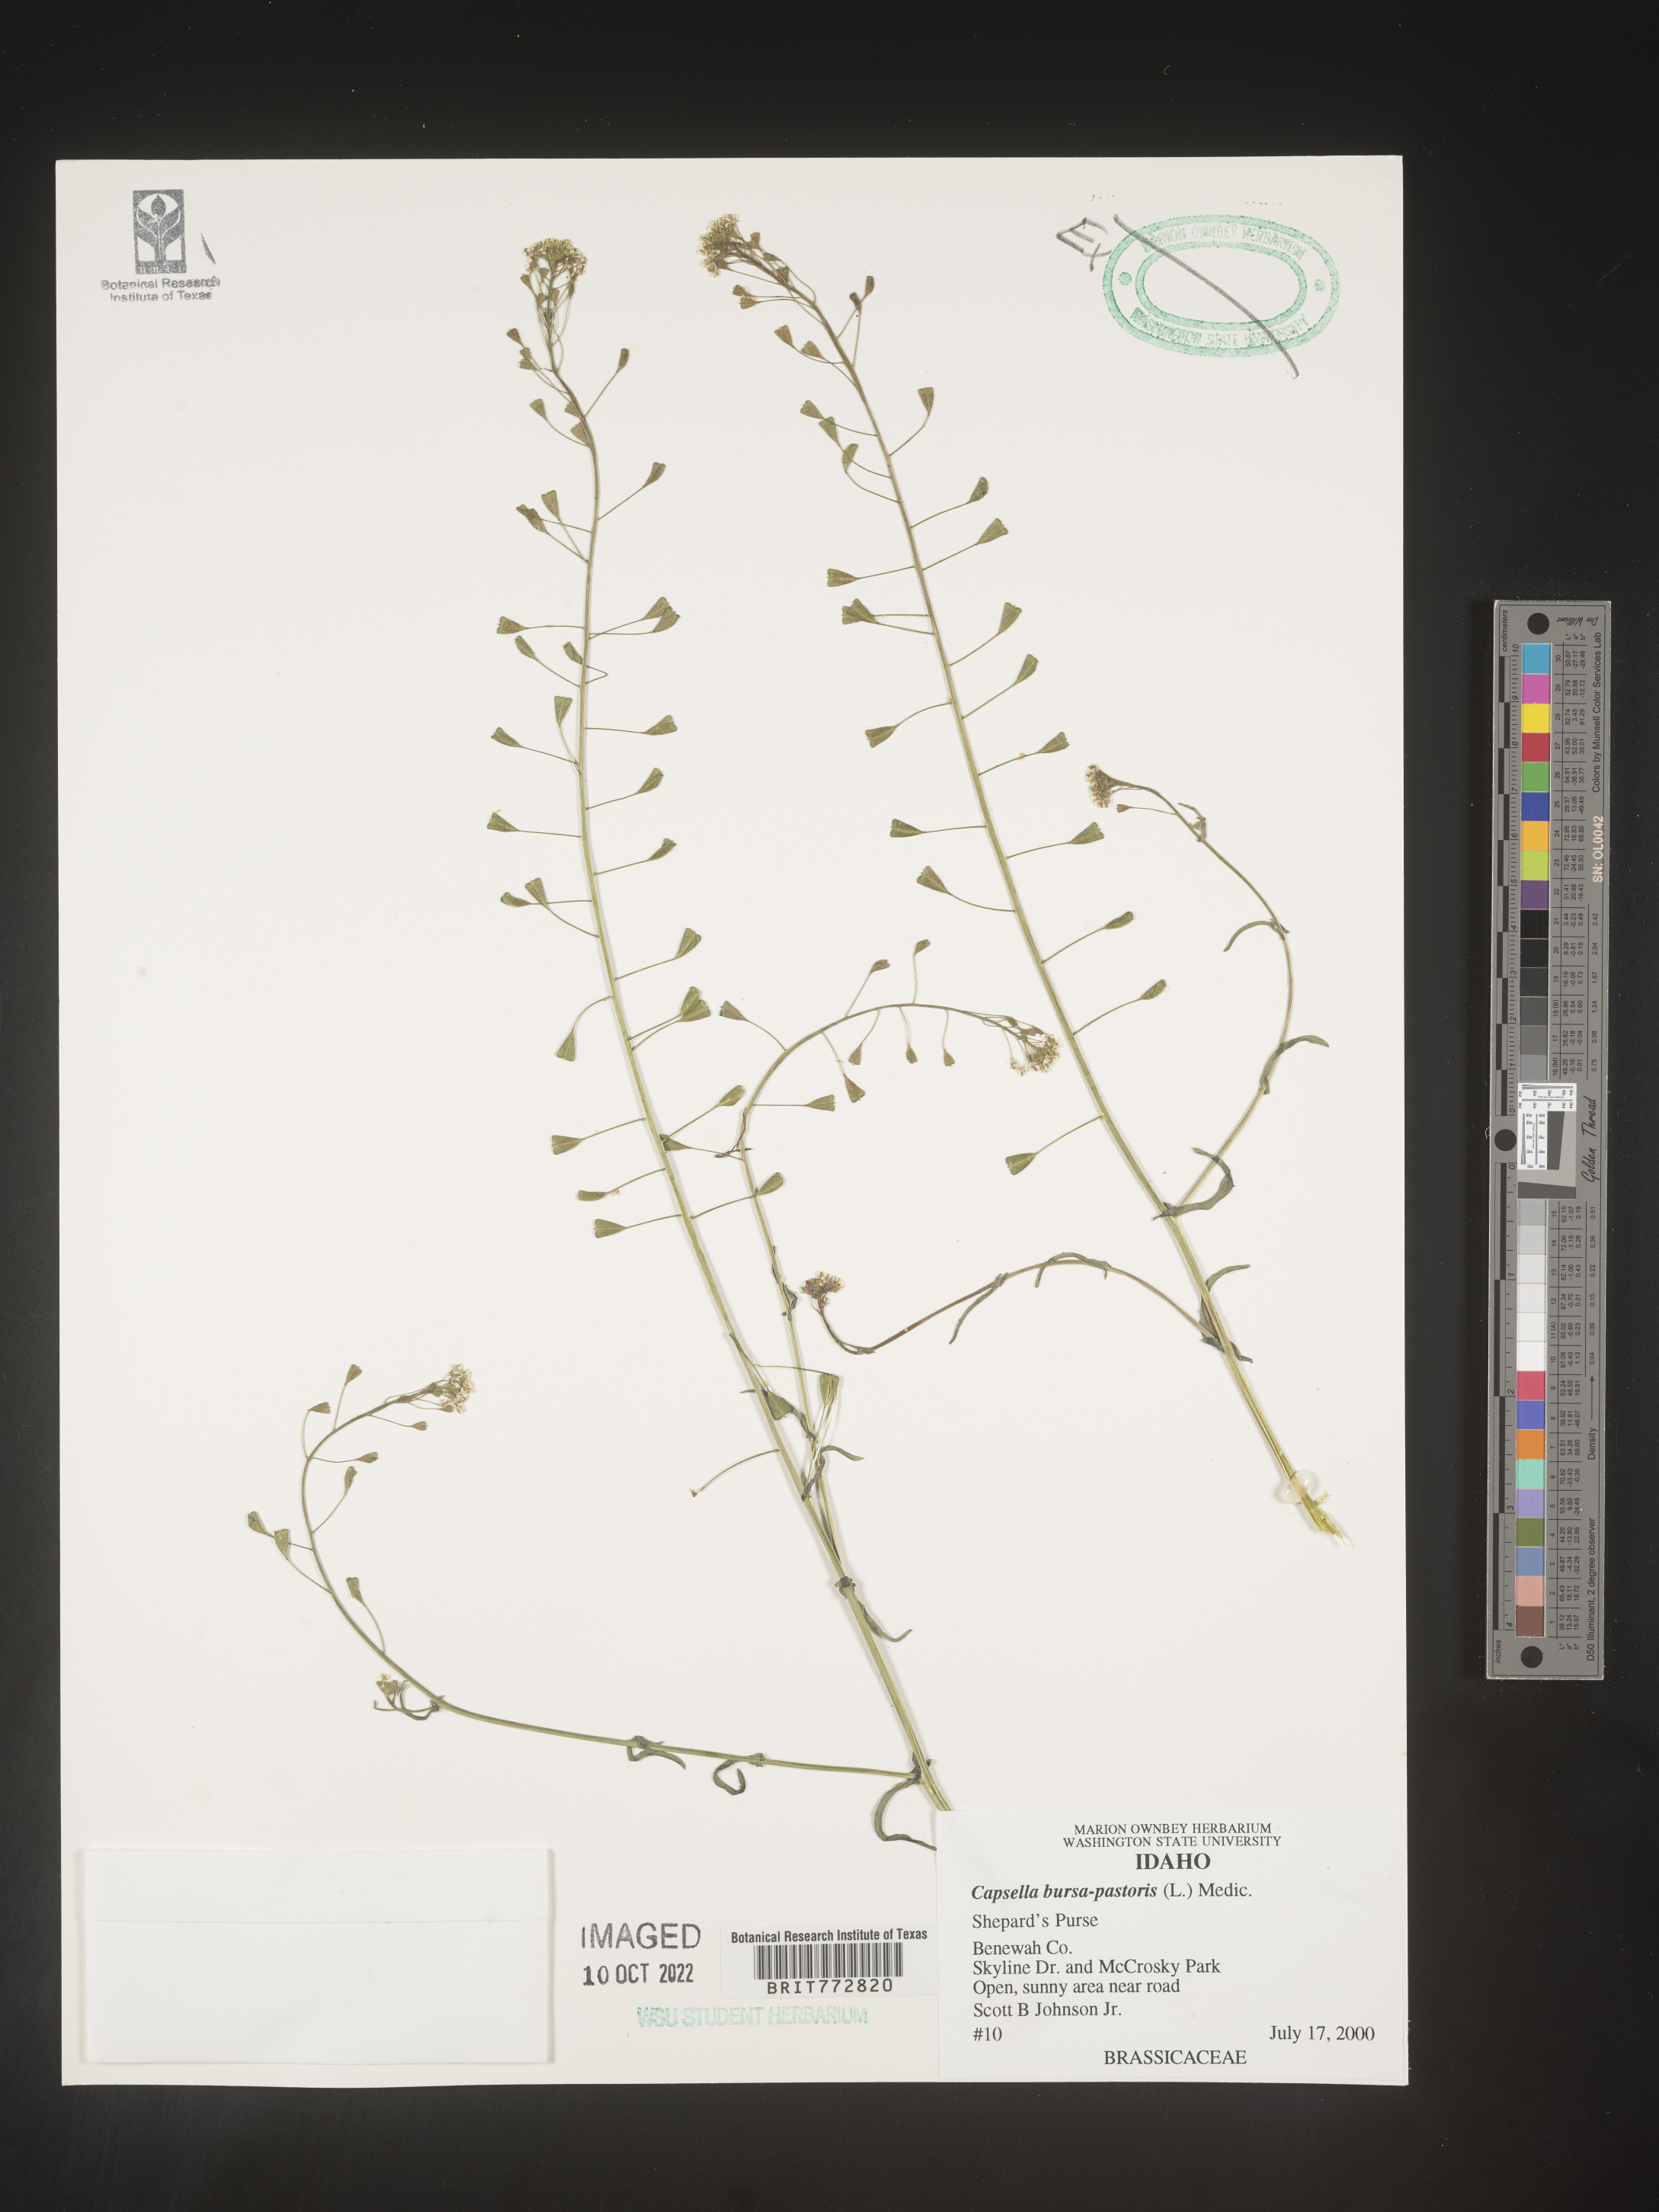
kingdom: Plantae
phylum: Tracheophyta
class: Magnoliopsida
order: Brassicales
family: Brassicaceae
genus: Capsella
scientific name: Capsella bursa-pastoris
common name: Shepherd's purse
